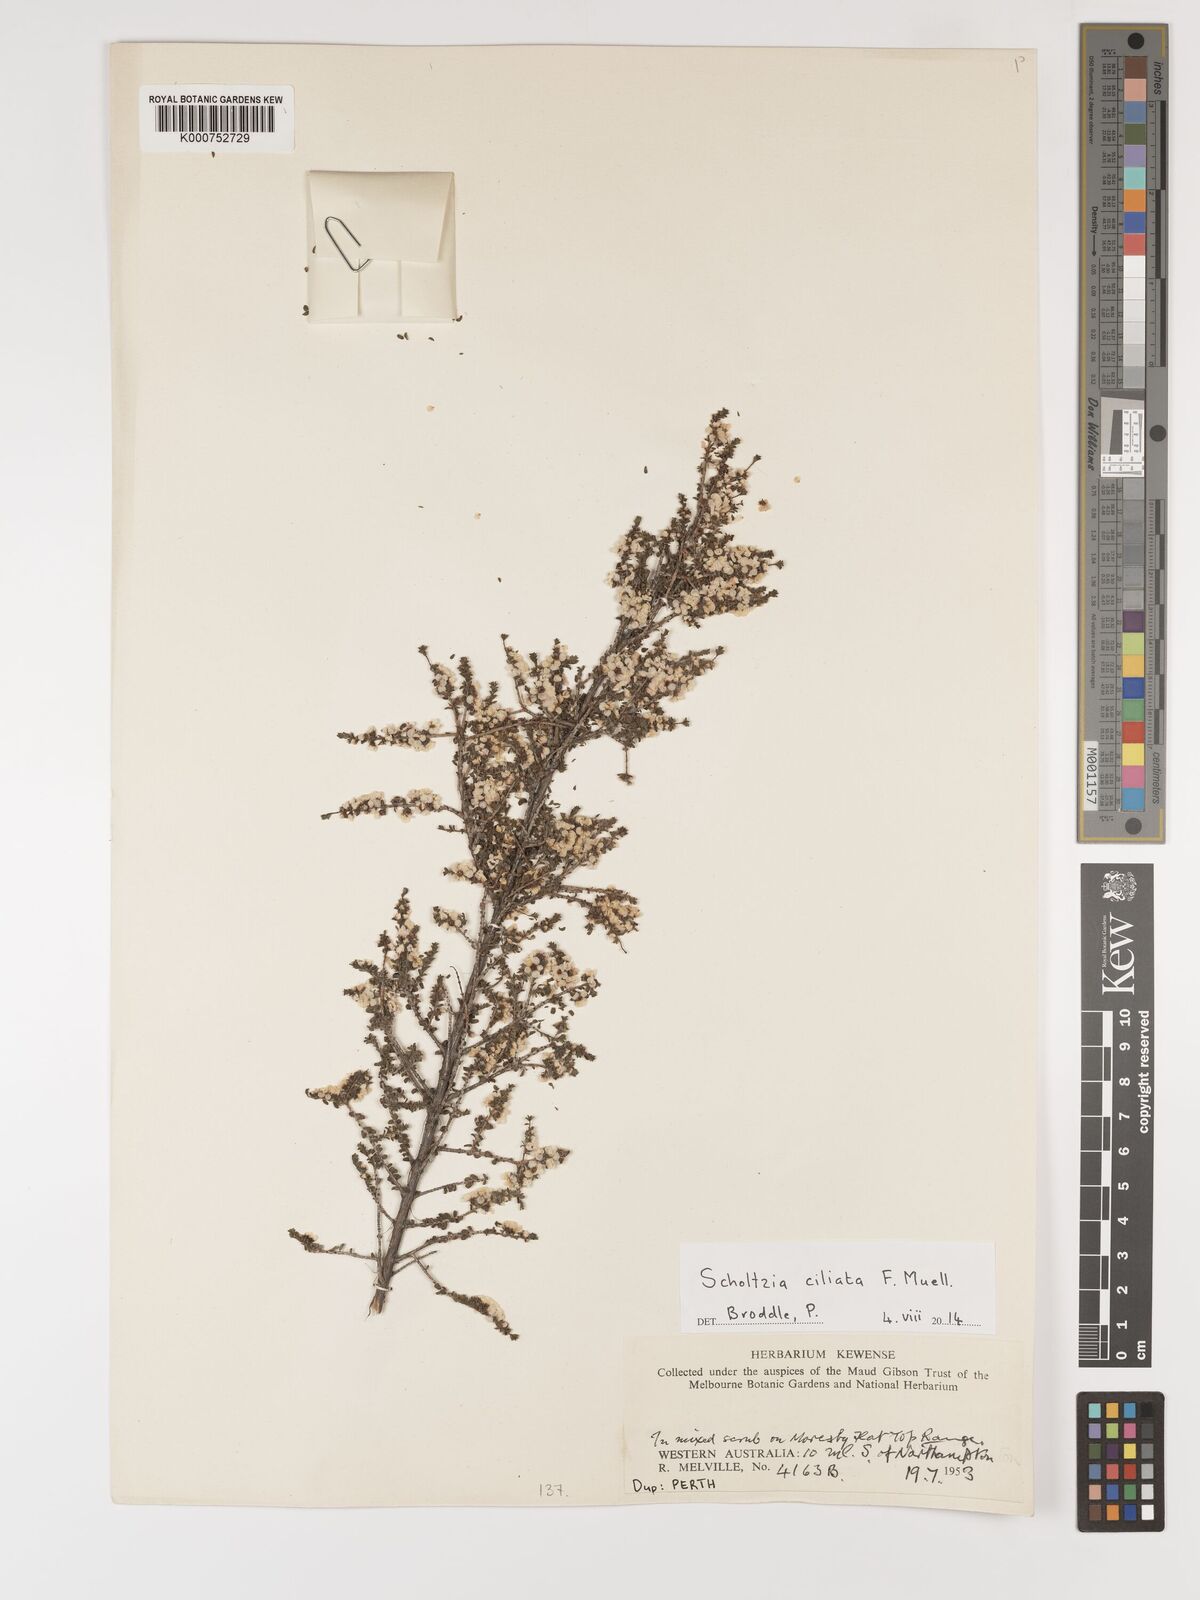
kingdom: Plantae
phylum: Tracheophyta
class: Magnoliopsida
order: Myrtales
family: Myrtaceae
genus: Scholtzia
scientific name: Scholtzia ciliata
